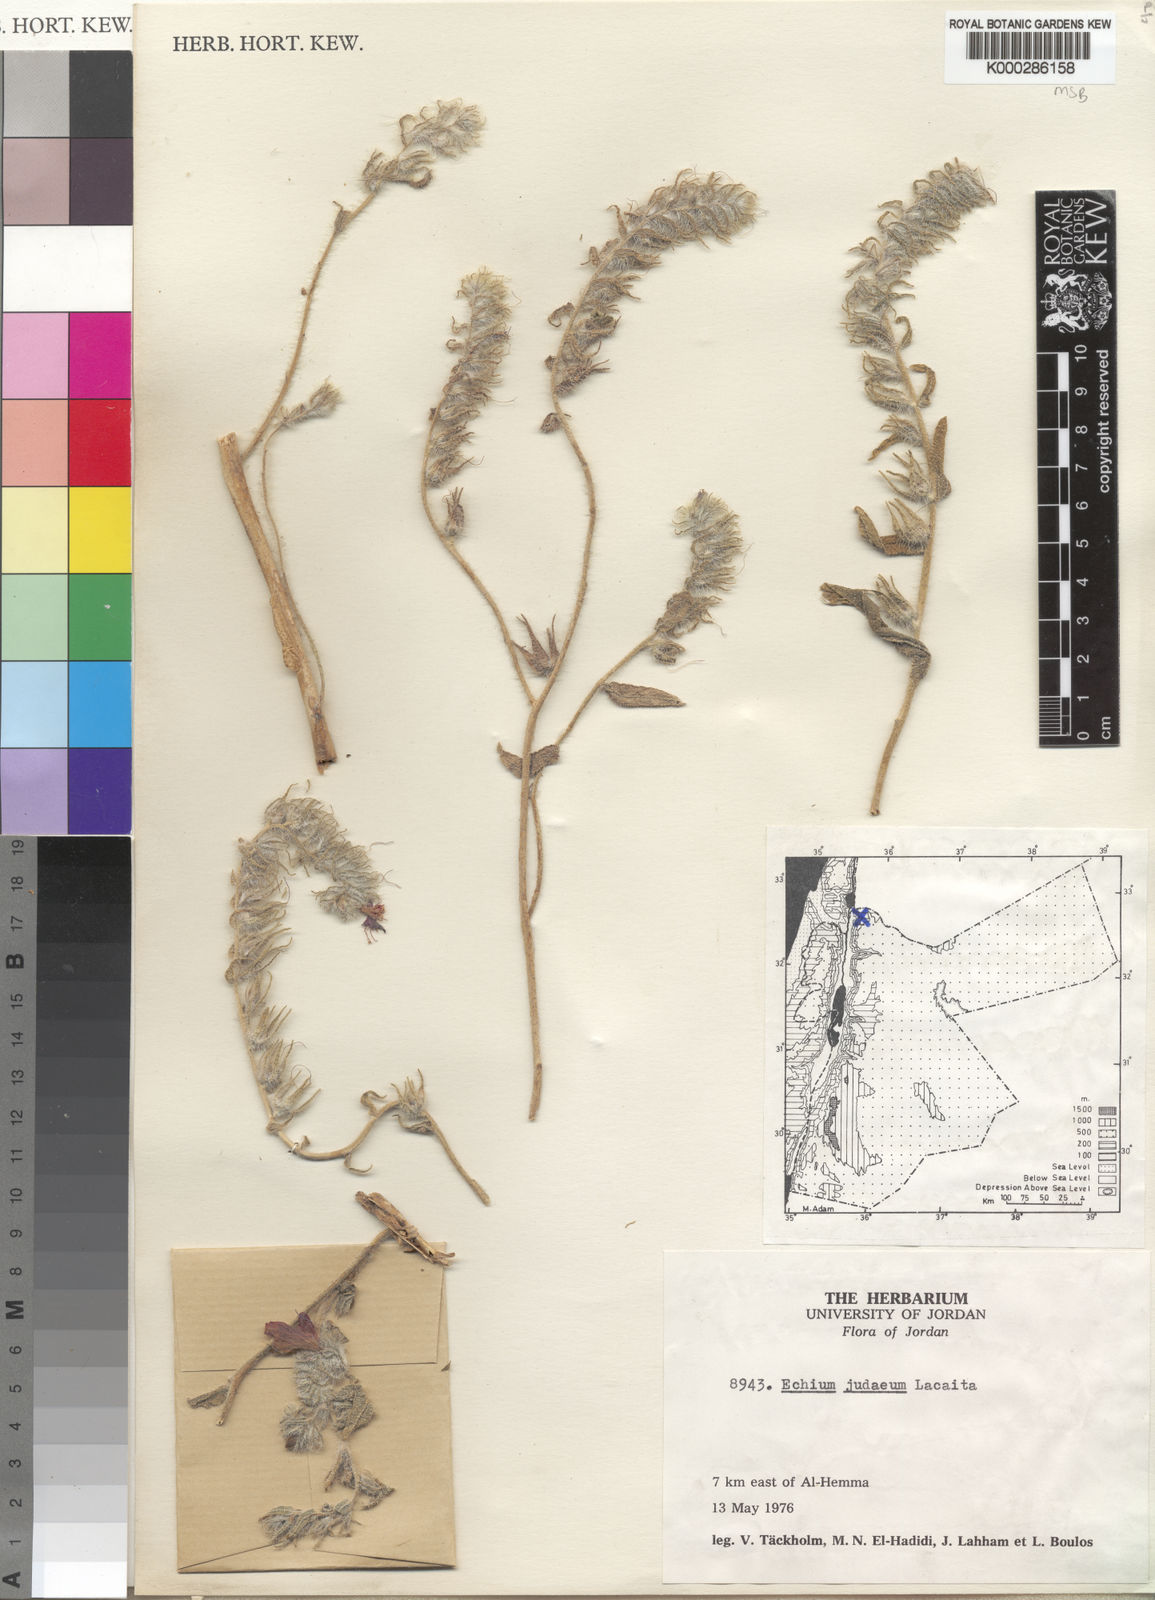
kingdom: Plantae
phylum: Tracheophyta
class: Magnoliopsida
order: Boraginales
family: Boraginaceae
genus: Echium
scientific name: Echium judaeum
